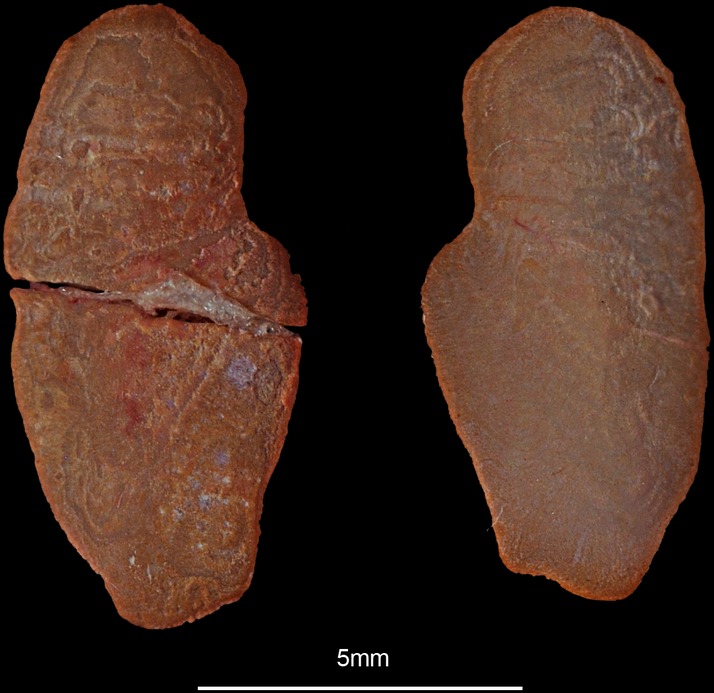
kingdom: Animalia
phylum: Chordata
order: Anguilliformes
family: Congridae
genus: Conger
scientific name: Conger conger
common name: Conger eel
